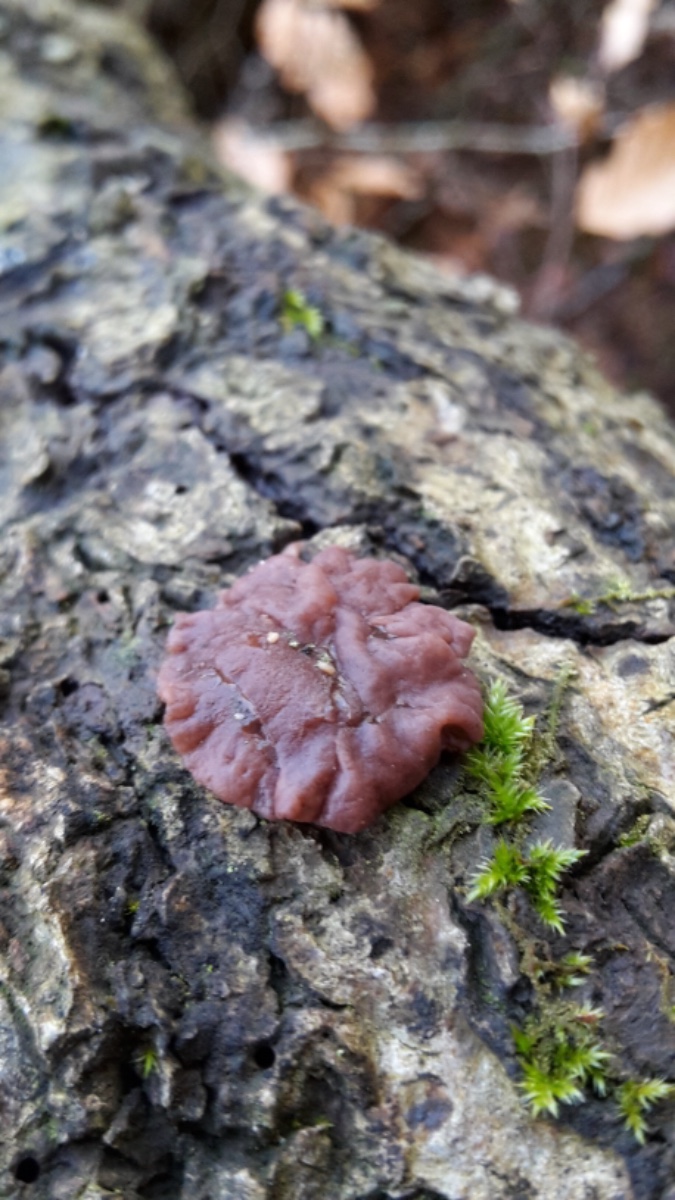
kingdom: Fungi
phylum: Ascomycota
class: Leotiomycetes
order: Helotiales
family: Gelatinodiscaceae
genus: Ascocoryne
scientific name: Ascocoryne cylichnium
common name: stor sejskive
